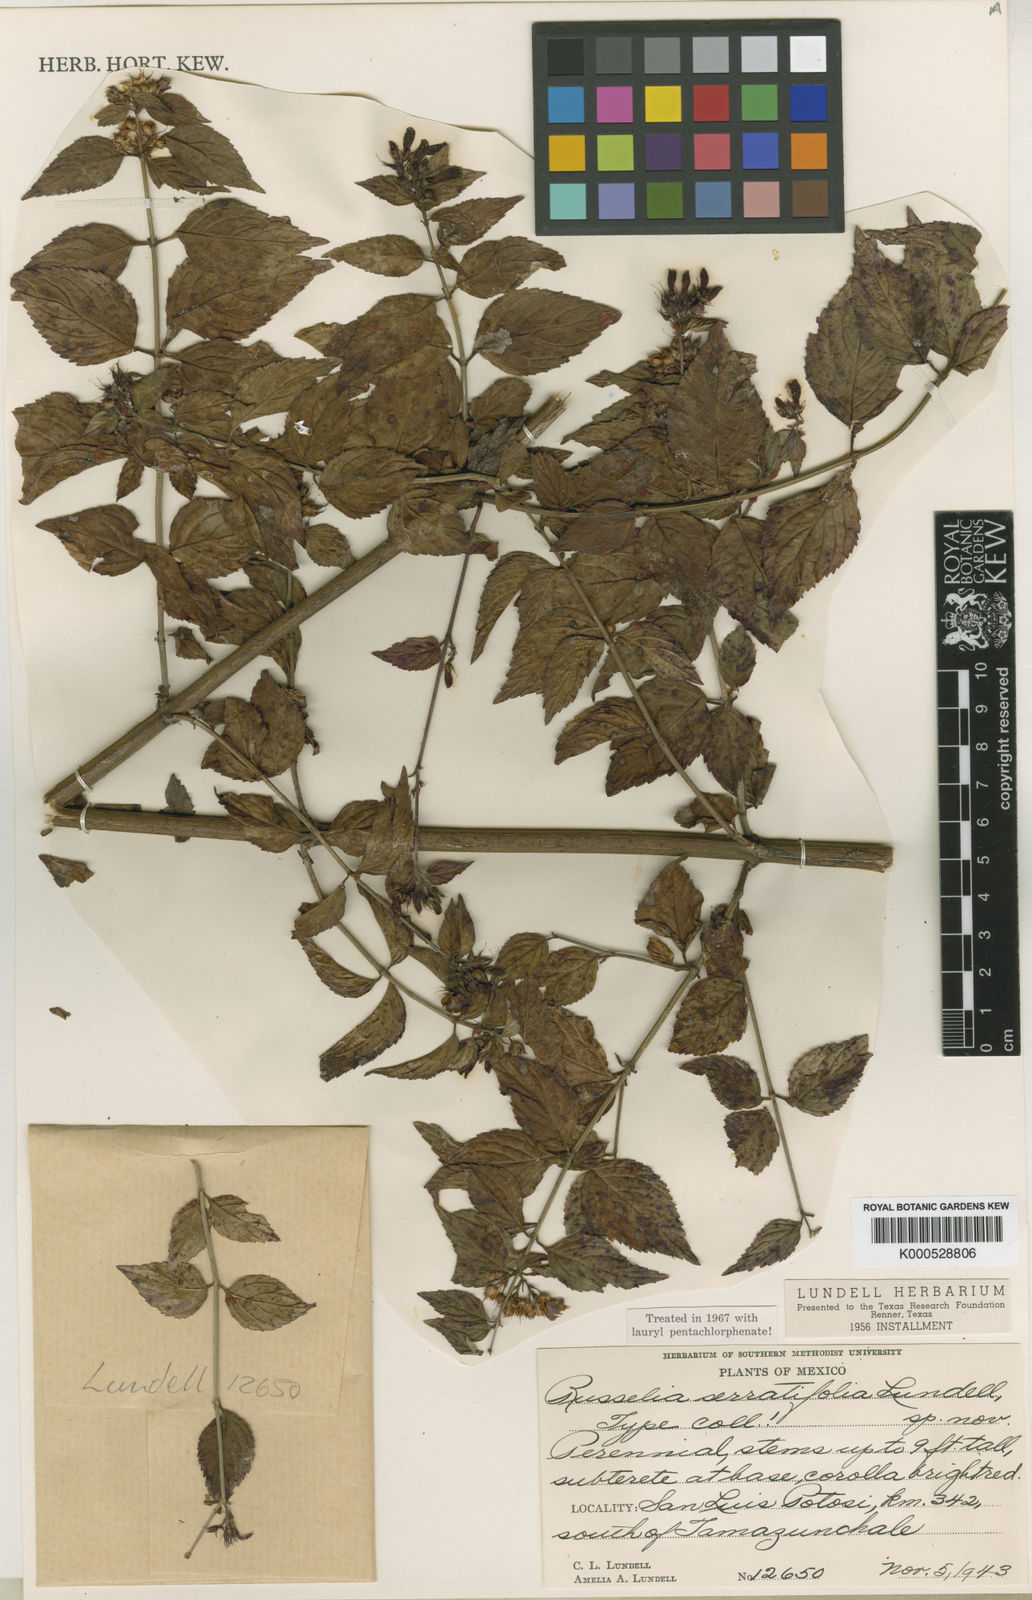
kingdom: Plantae
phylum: Tracheophyta
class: Magnoliopsida
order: Lamiales
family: Plantaginaceae
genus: Russelia
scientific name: Russelia coccinea
